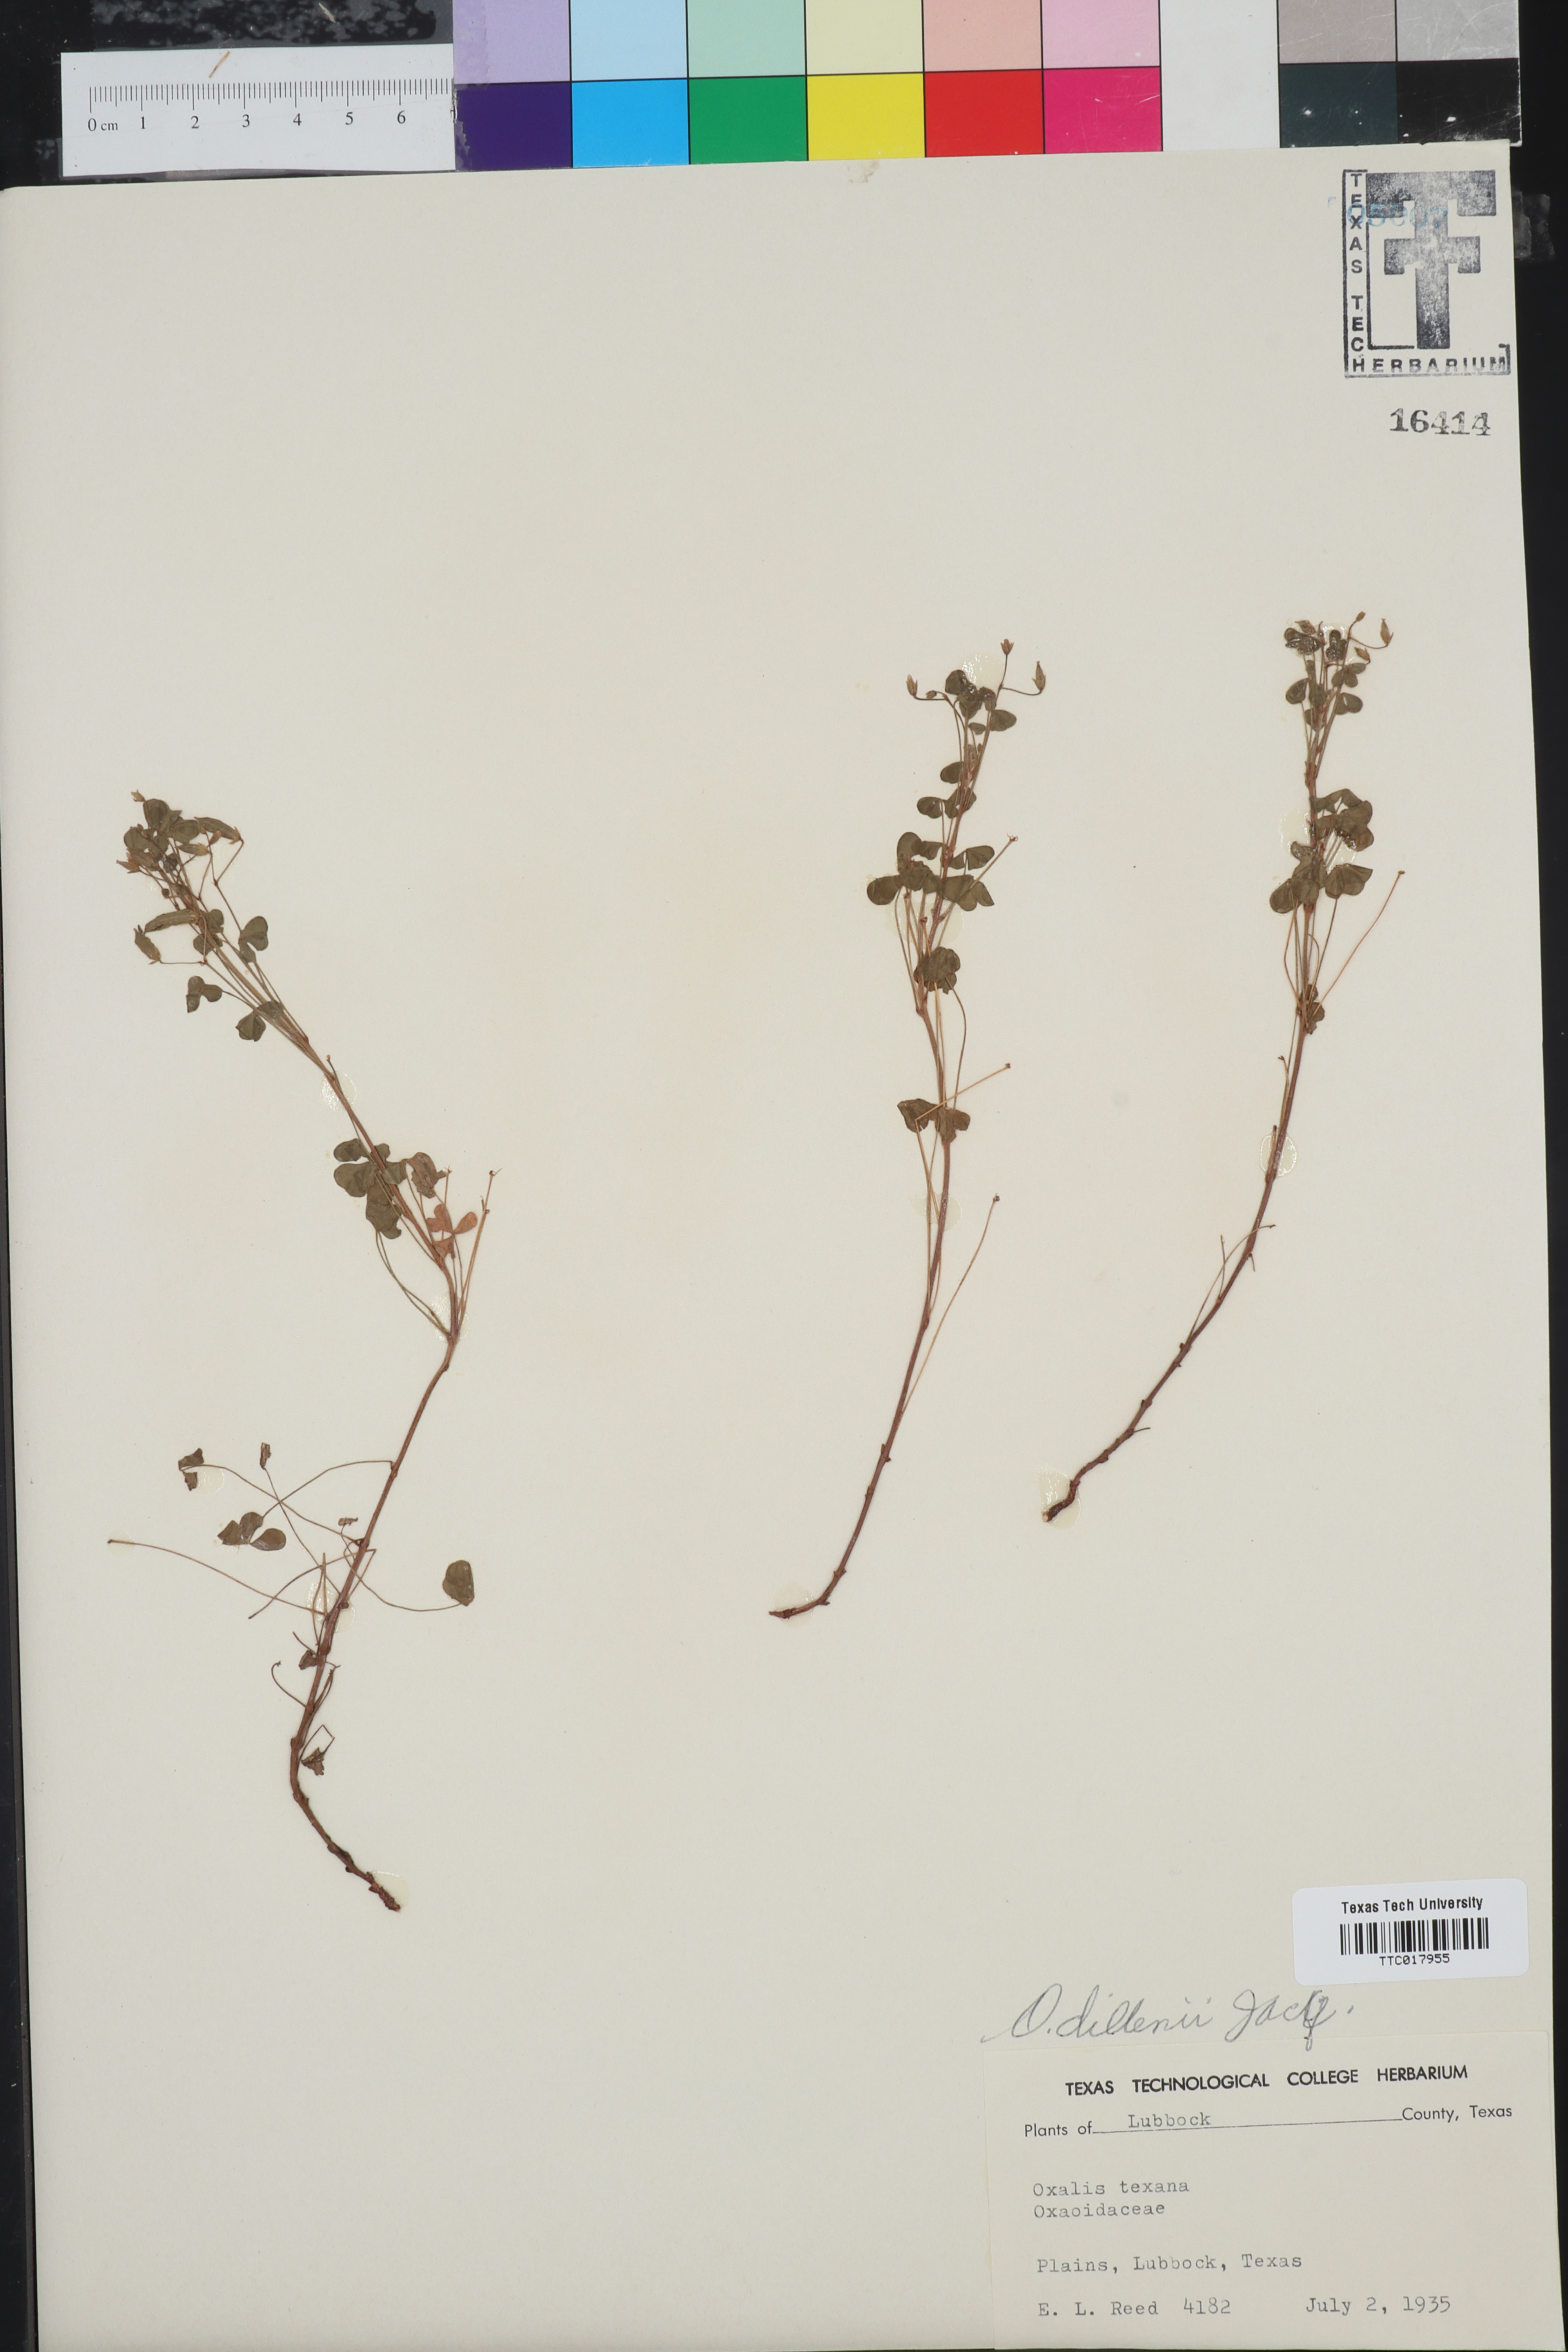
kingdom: Plantae
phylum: Tracheophyta
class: Magnoliopsida
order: Oxalidales
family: Oxalidaceae
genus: Oxalis
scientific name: Oxalis dillenii
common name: Sussex yellow-sorrel
